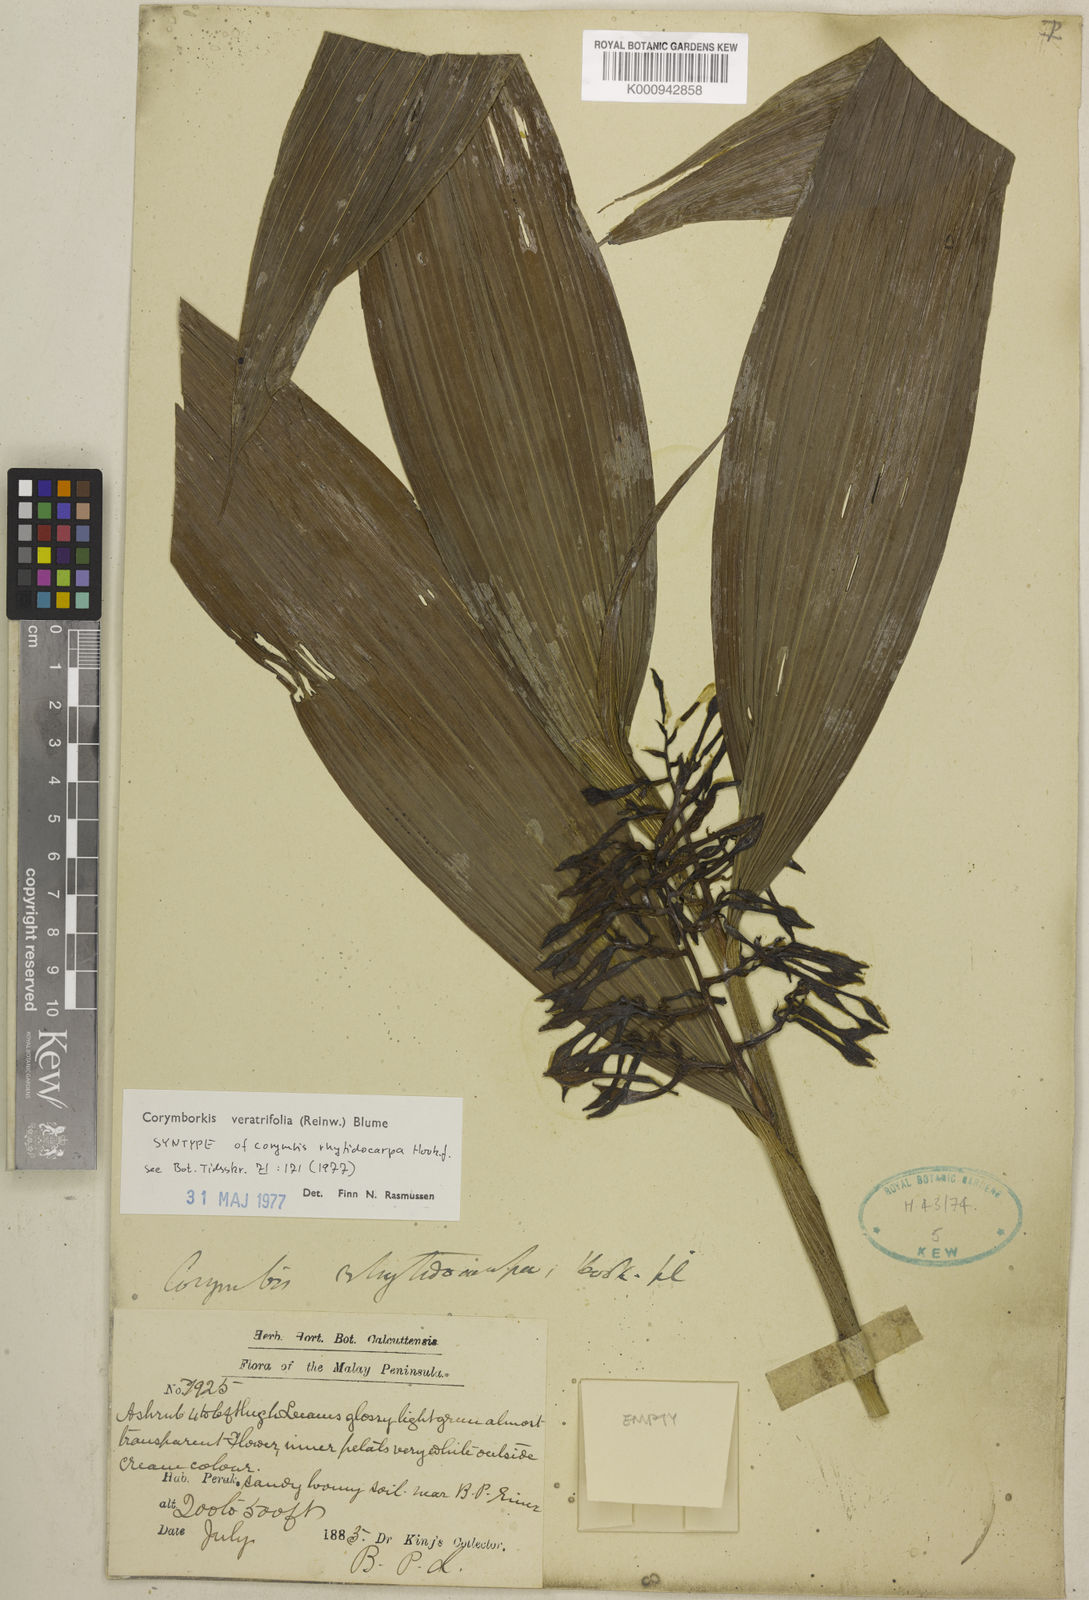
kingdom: Plantae
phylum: Tracheophyta
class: Liliopsida
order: Asparagales
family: Orchidaceae
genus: Corymborkis
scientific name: Corymborkis veratrifolia
